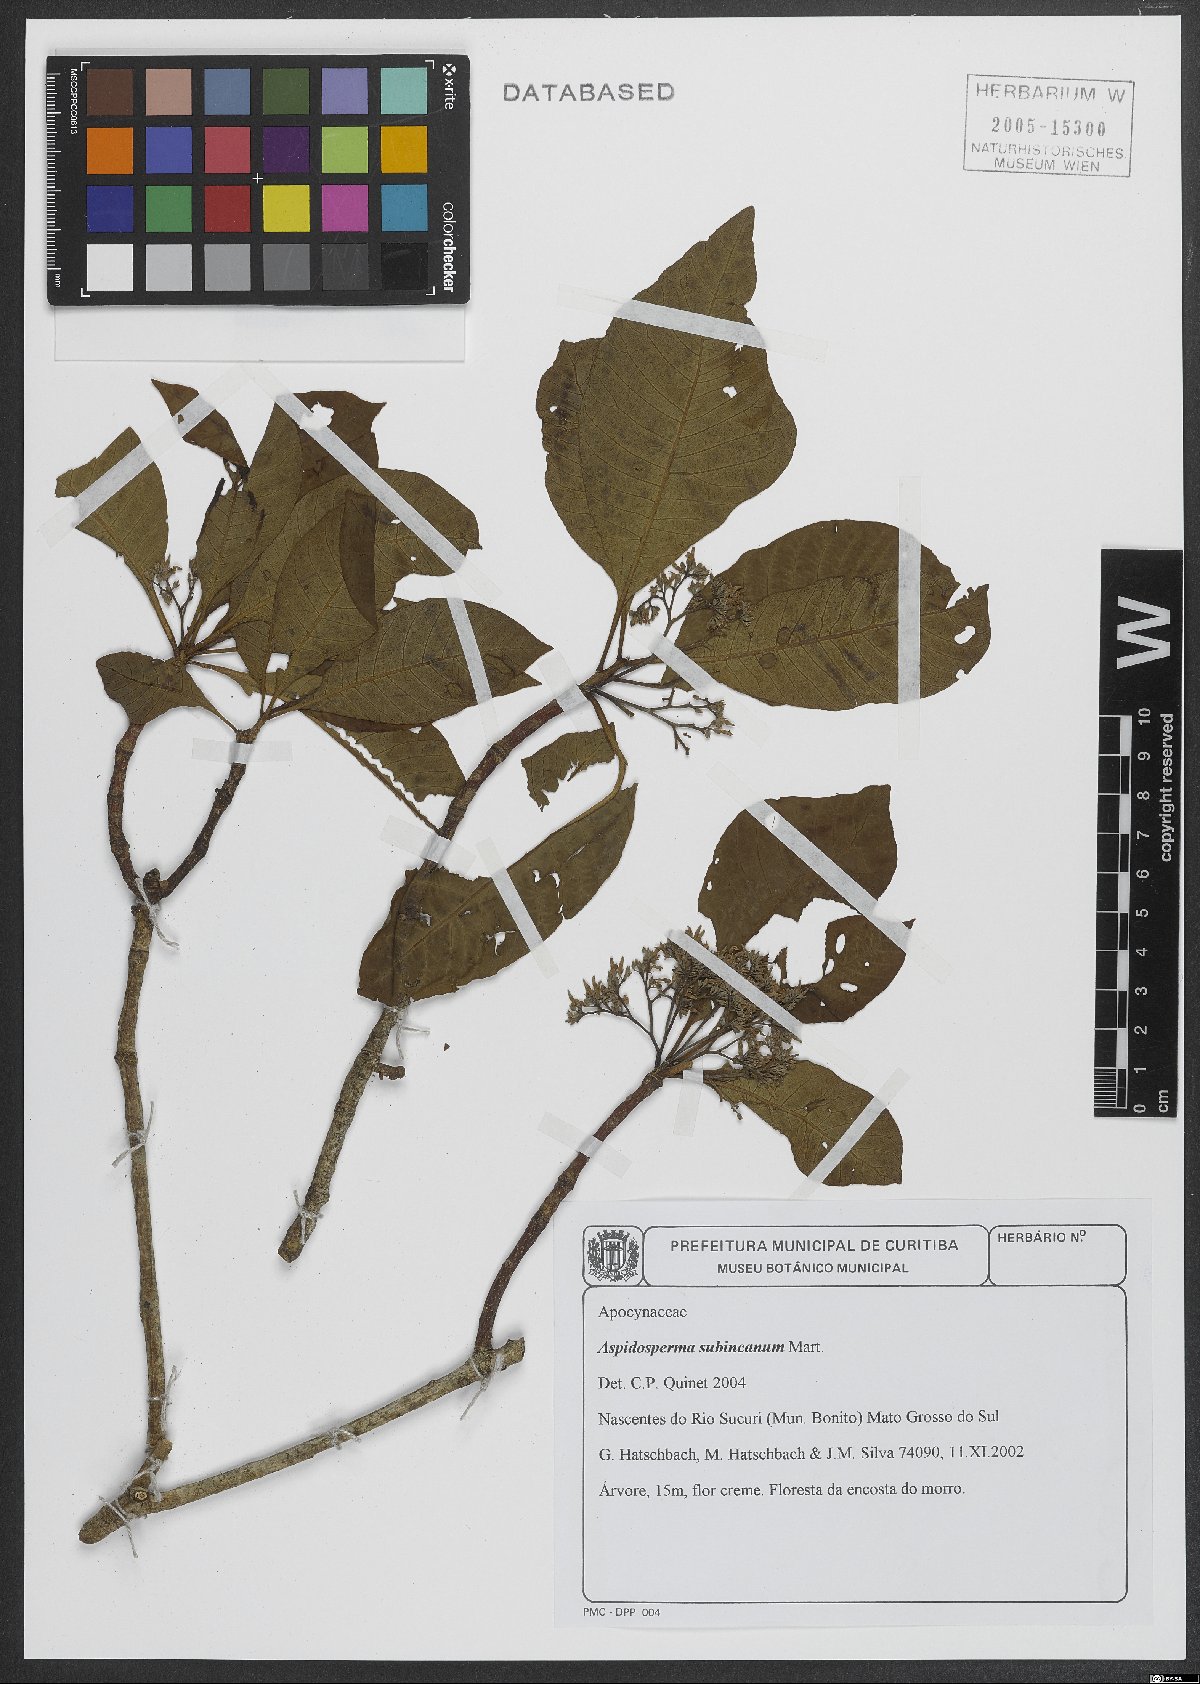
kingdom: Plantae
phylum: Tracheophyta
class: Magnoliopsida
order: Gentianales
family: Apocynaceae
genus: Aspidosperma
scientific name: Aspidosperma subincanum
